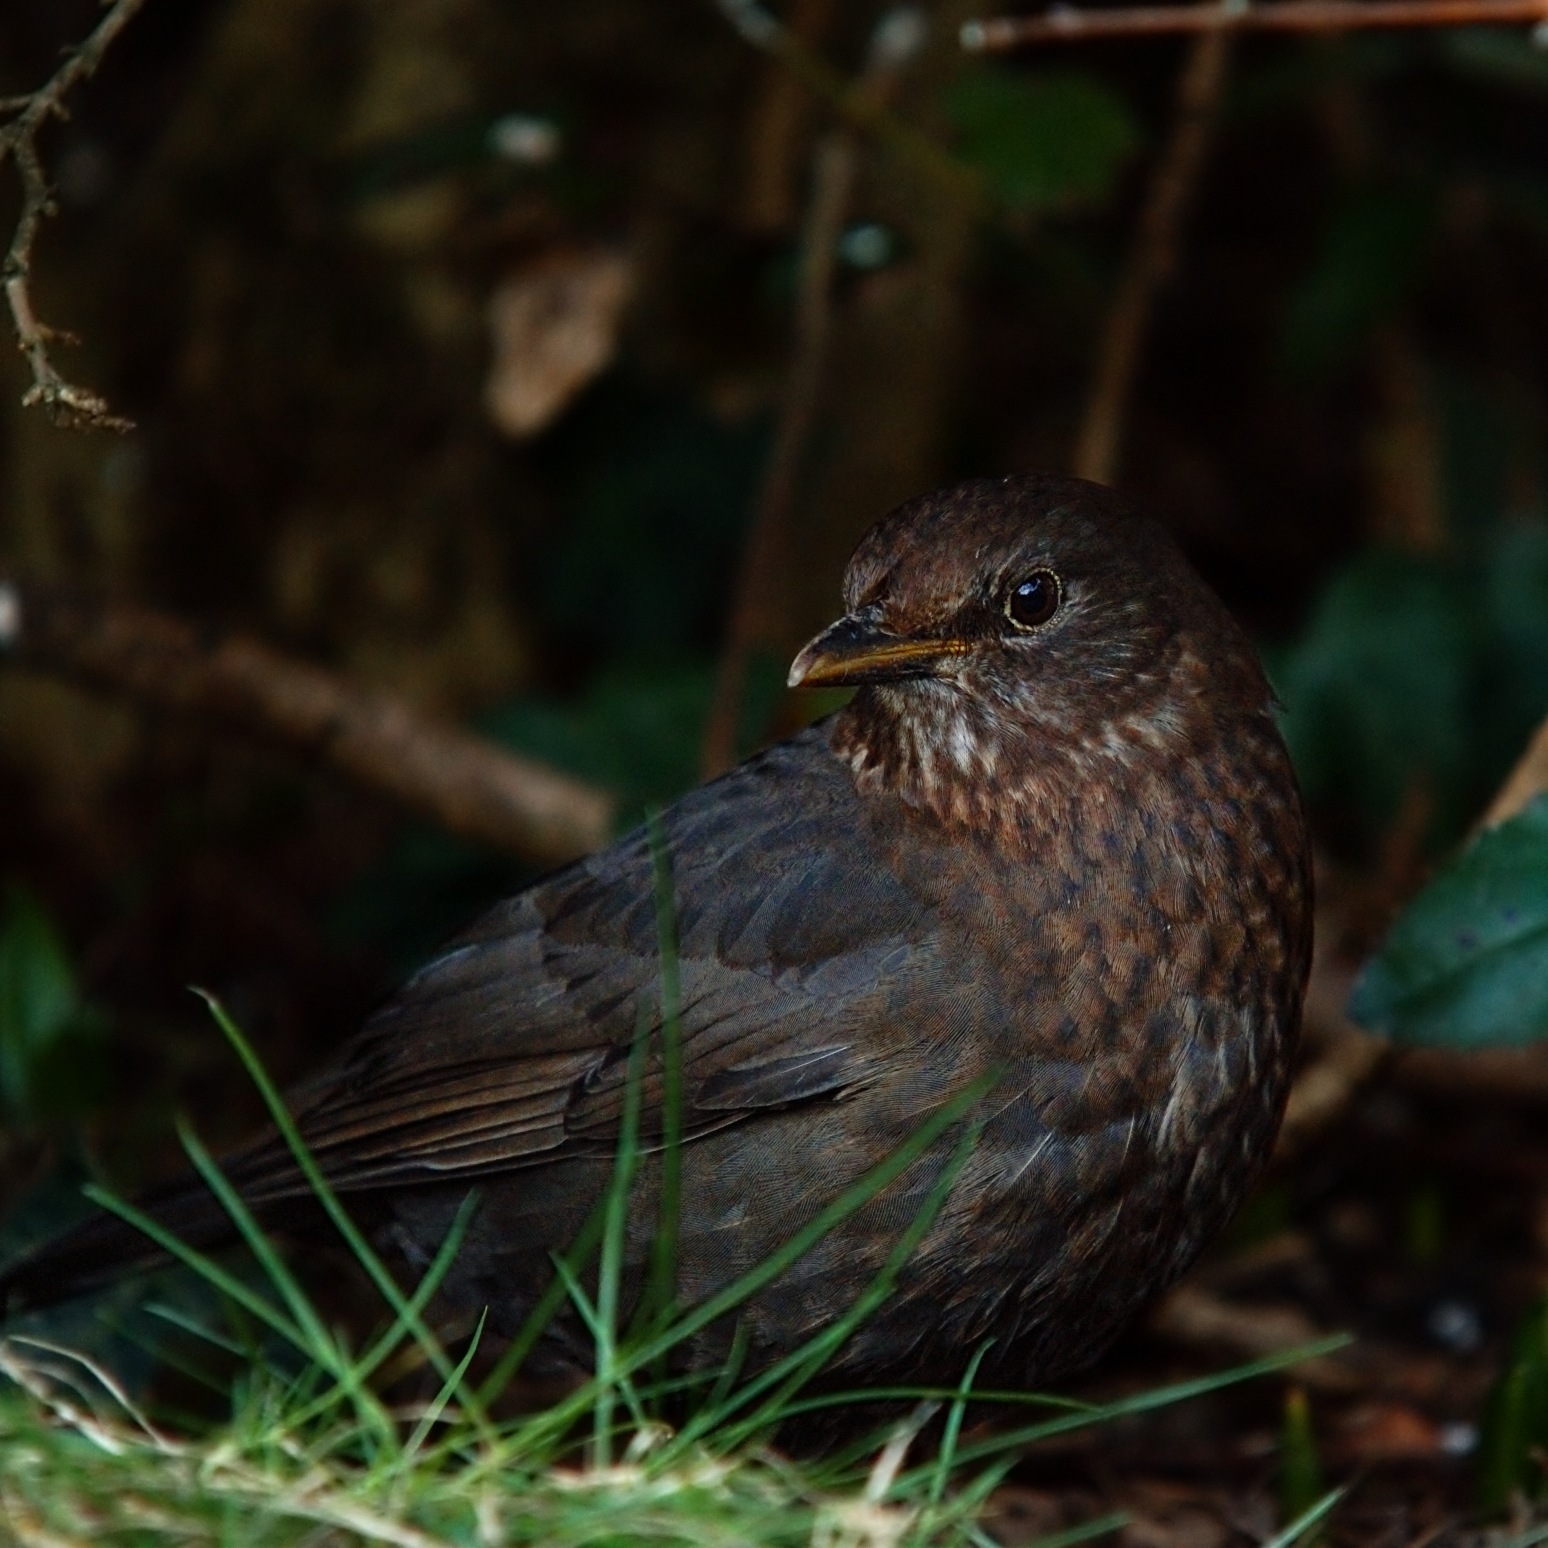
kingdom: Animalia
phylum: Chordata
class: Aves
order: Passeriformes
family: Turdidae
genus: Turdus
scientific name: Turdus merula
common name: Solsort
